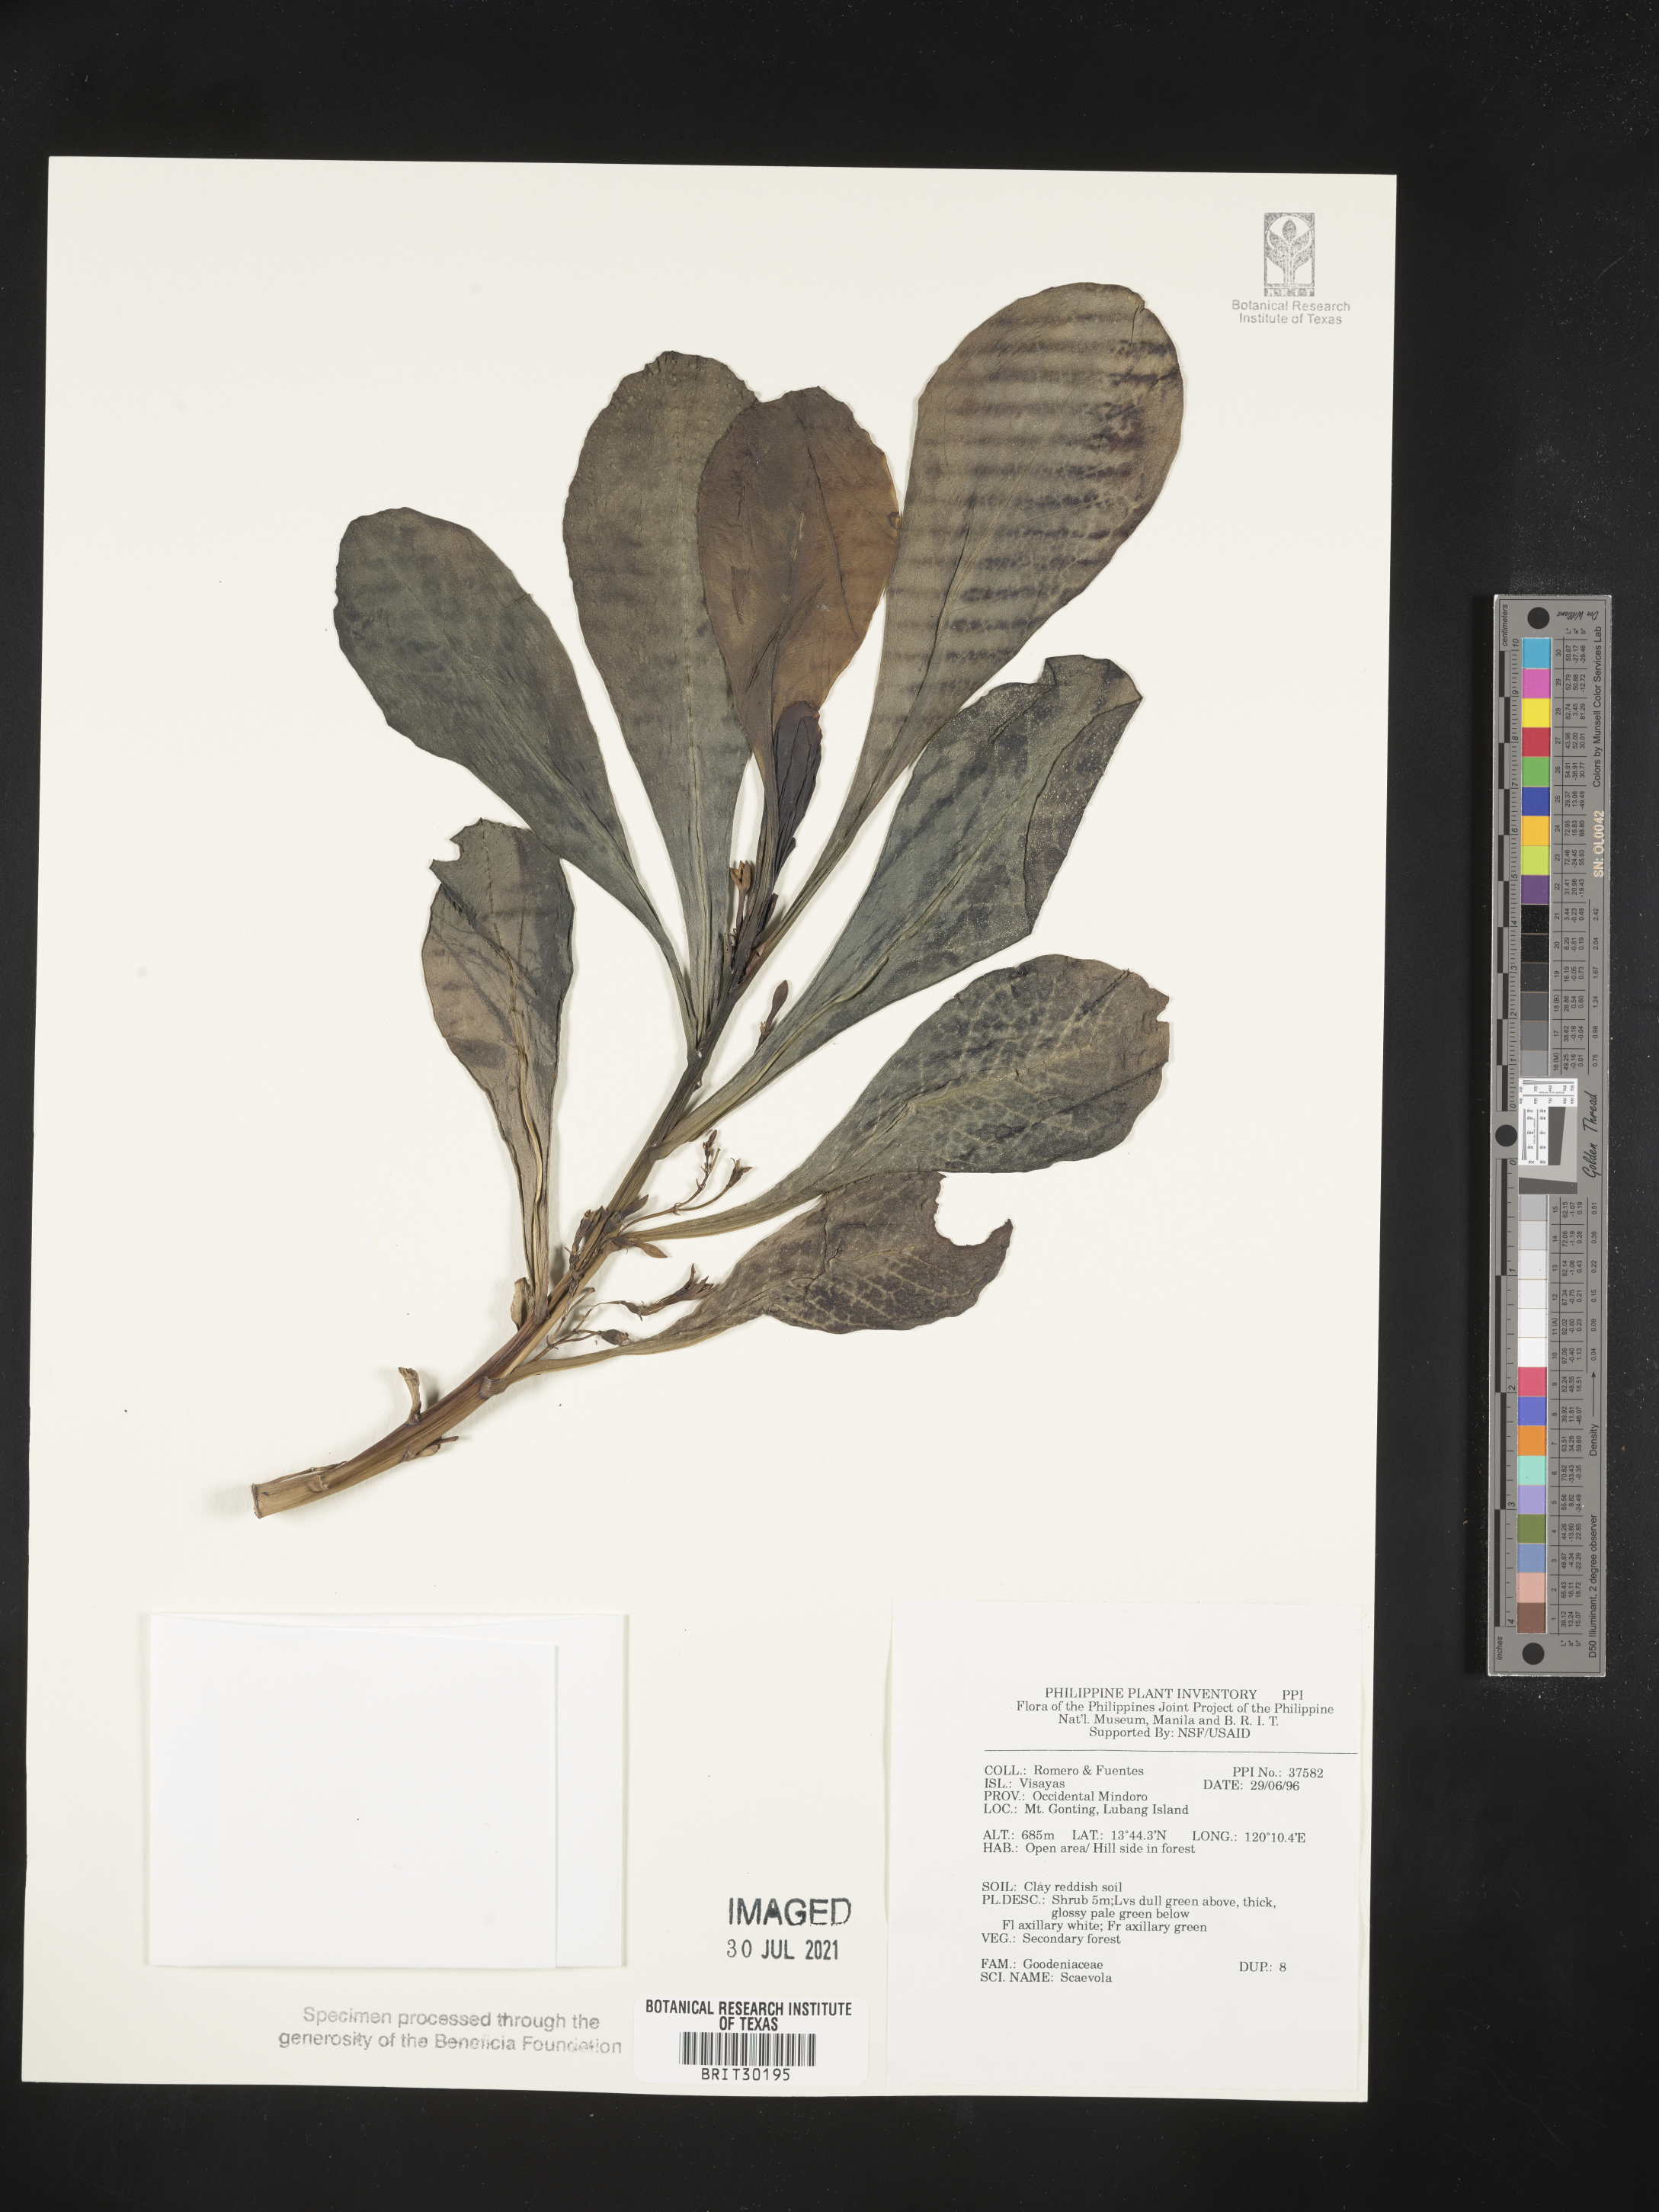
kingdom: Plantae
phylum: Tracheophyta
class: Magnoliopsida
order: Asterales
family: Goodeniaceae
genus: Scaevola
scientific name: Scaevola
